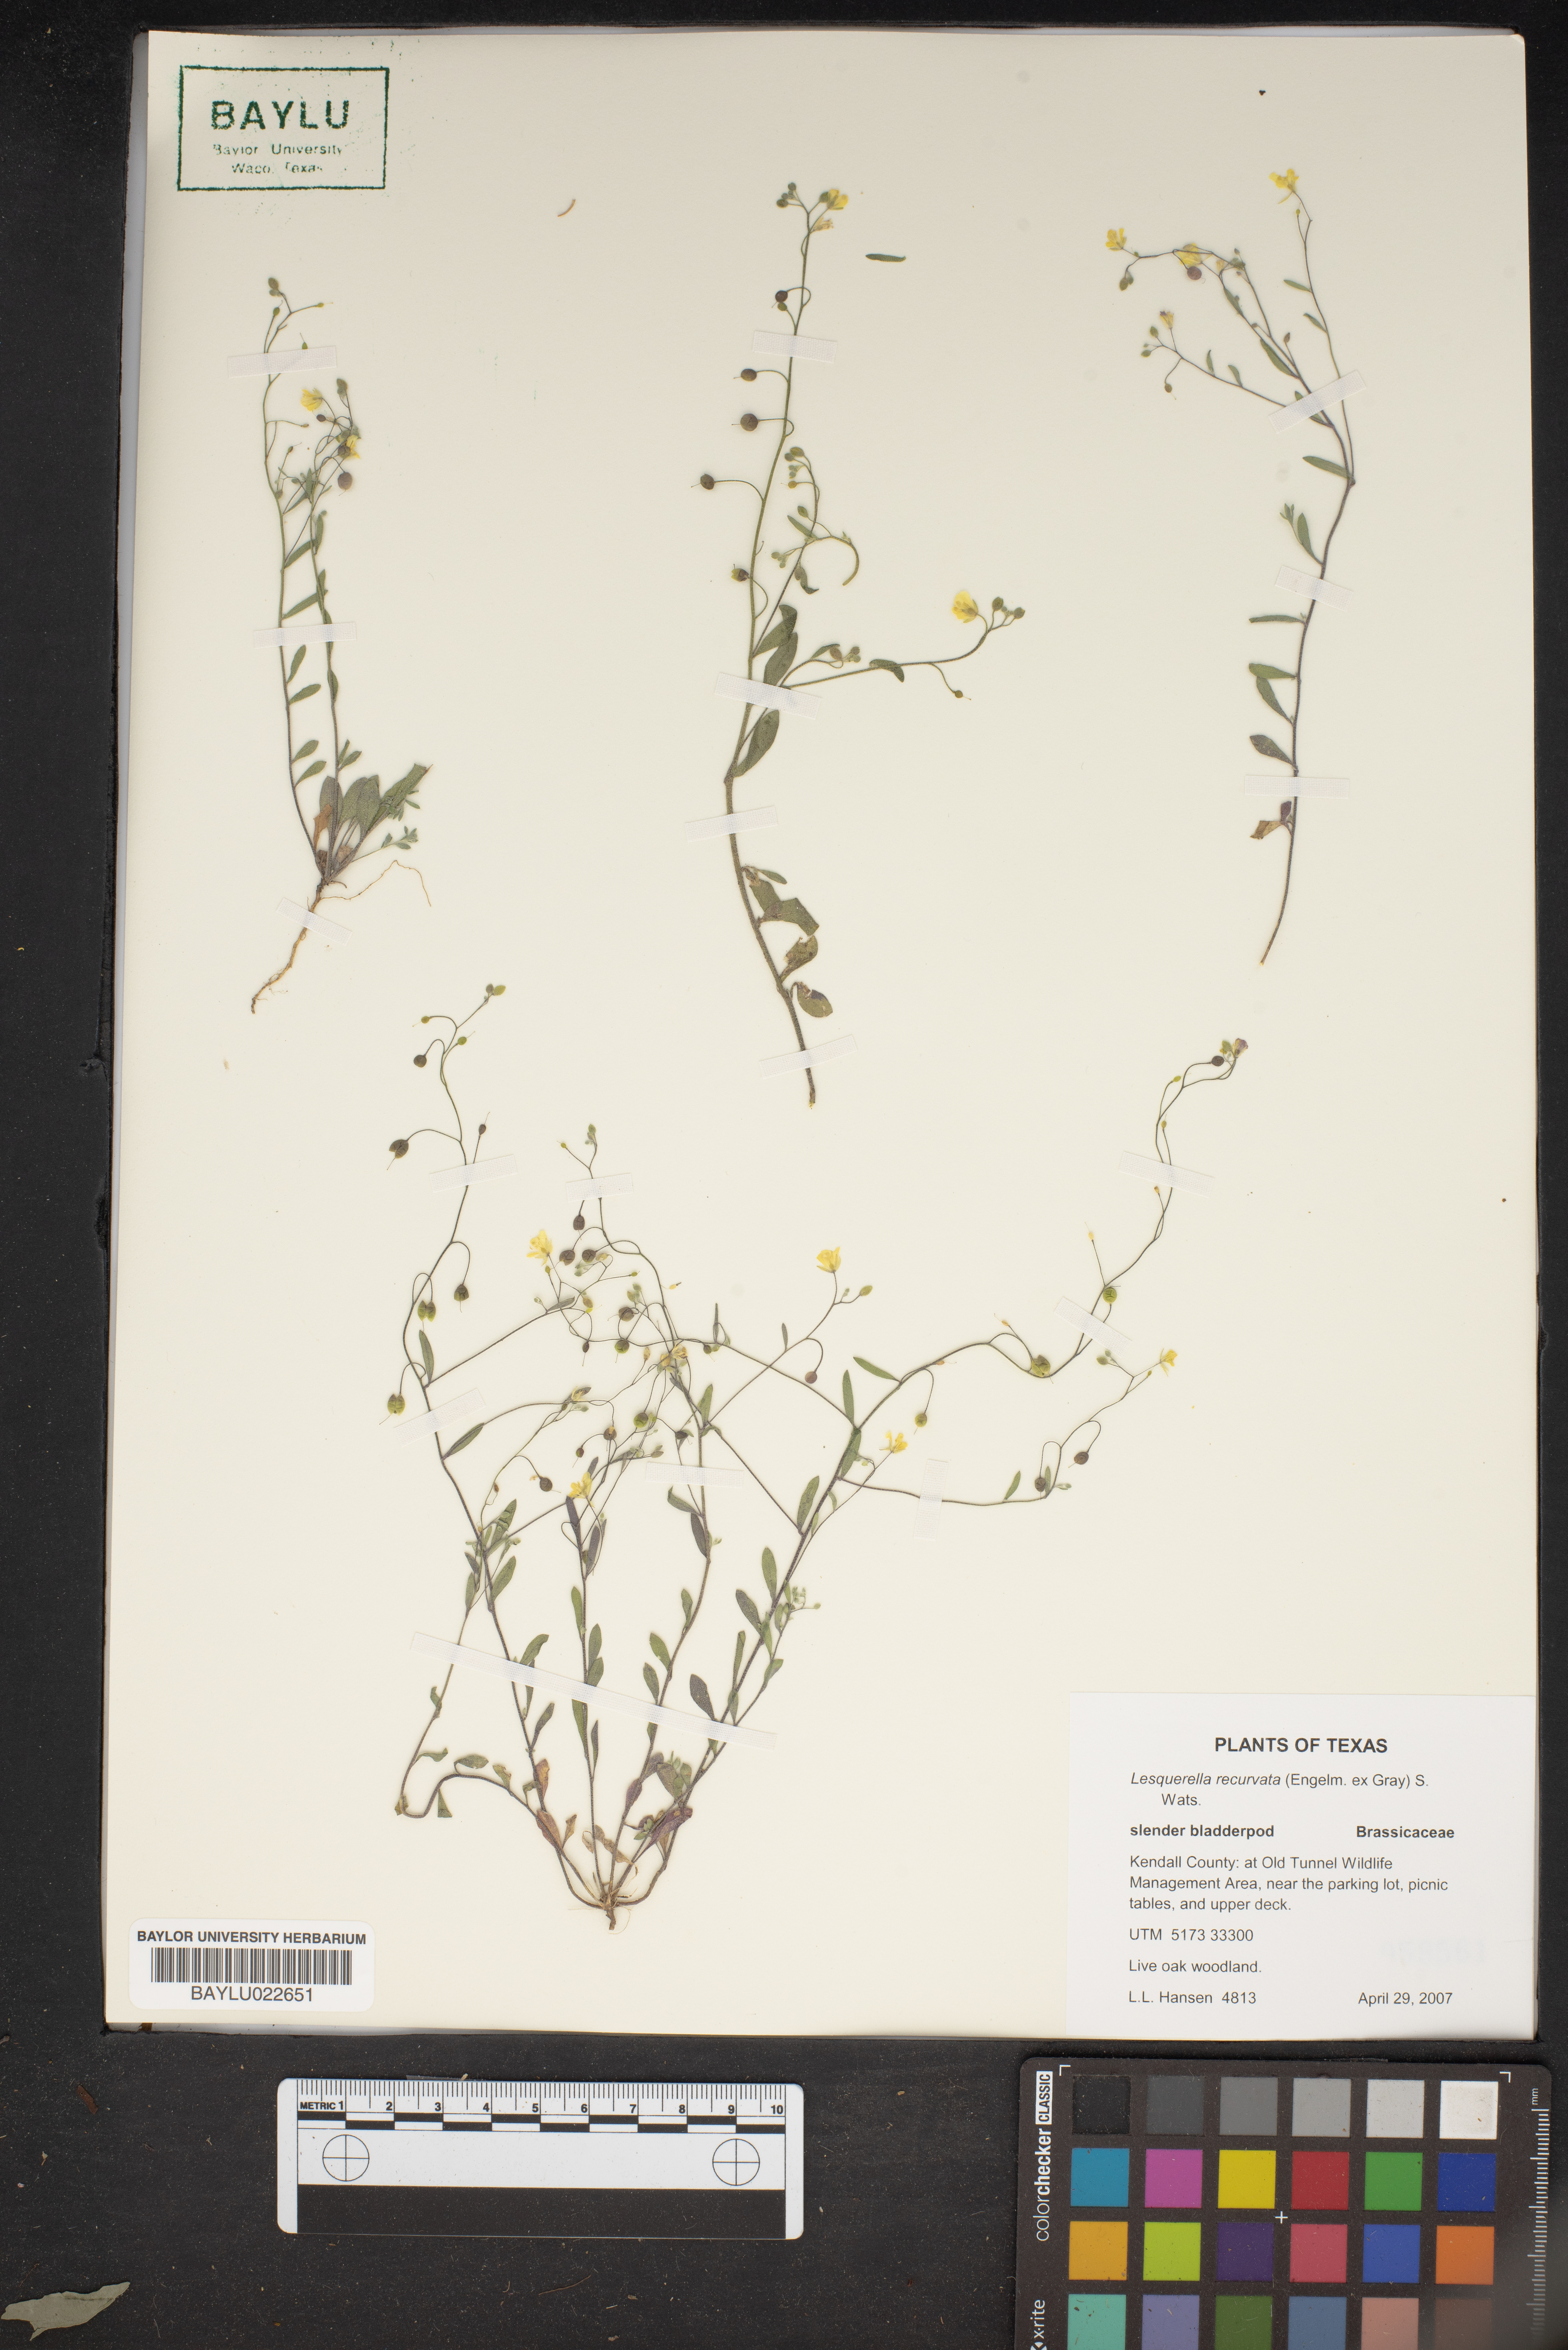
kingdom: Plantae
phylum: Tracheophyta
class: Magnoliopsida
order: Brassicales
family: Brassicaceae
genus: Physaria
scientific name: Physaria recurvata
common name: Gaslight bladderpod
